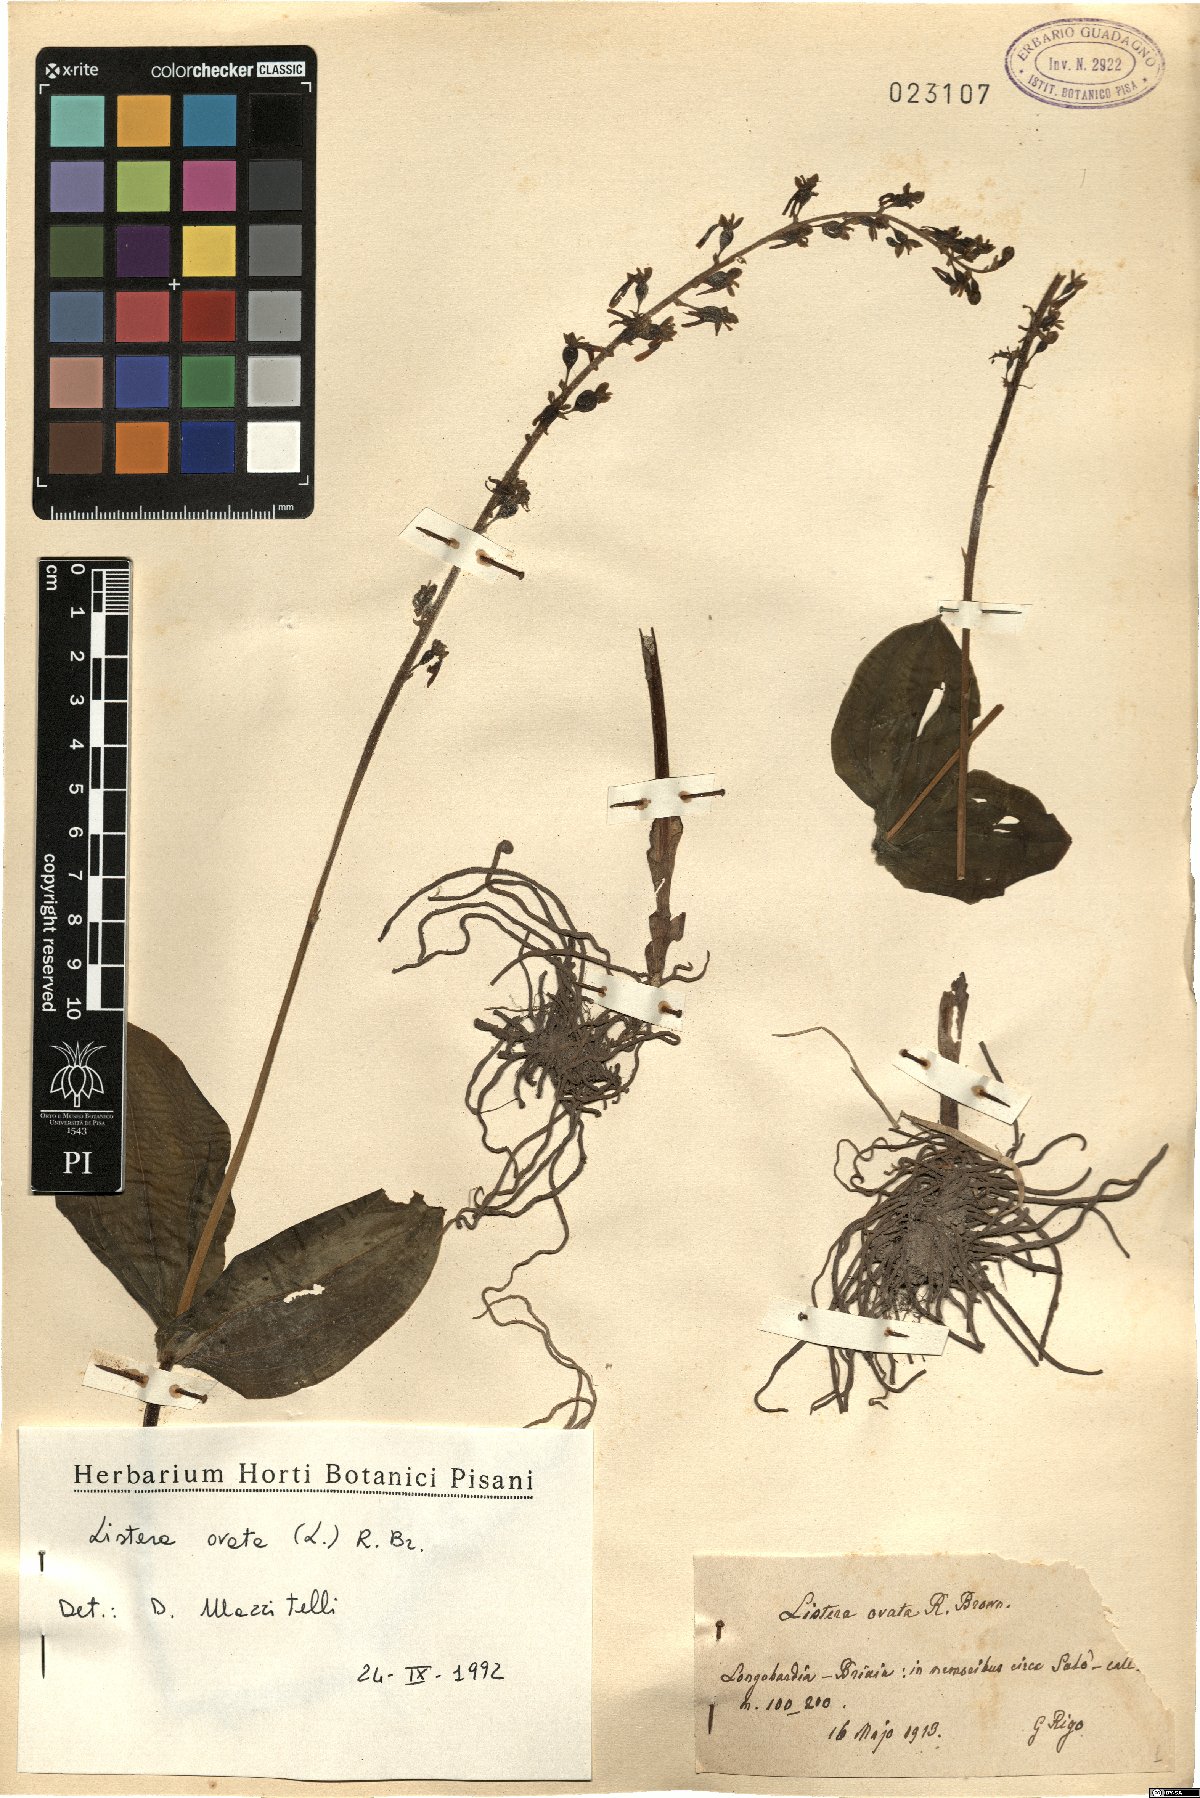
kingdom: Plantae
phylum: Tracheophyta
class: Liliopsida
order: Asparagales
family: Orchidaceae
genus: Neottia
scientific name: Neottia ovata
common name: Common twayblade
